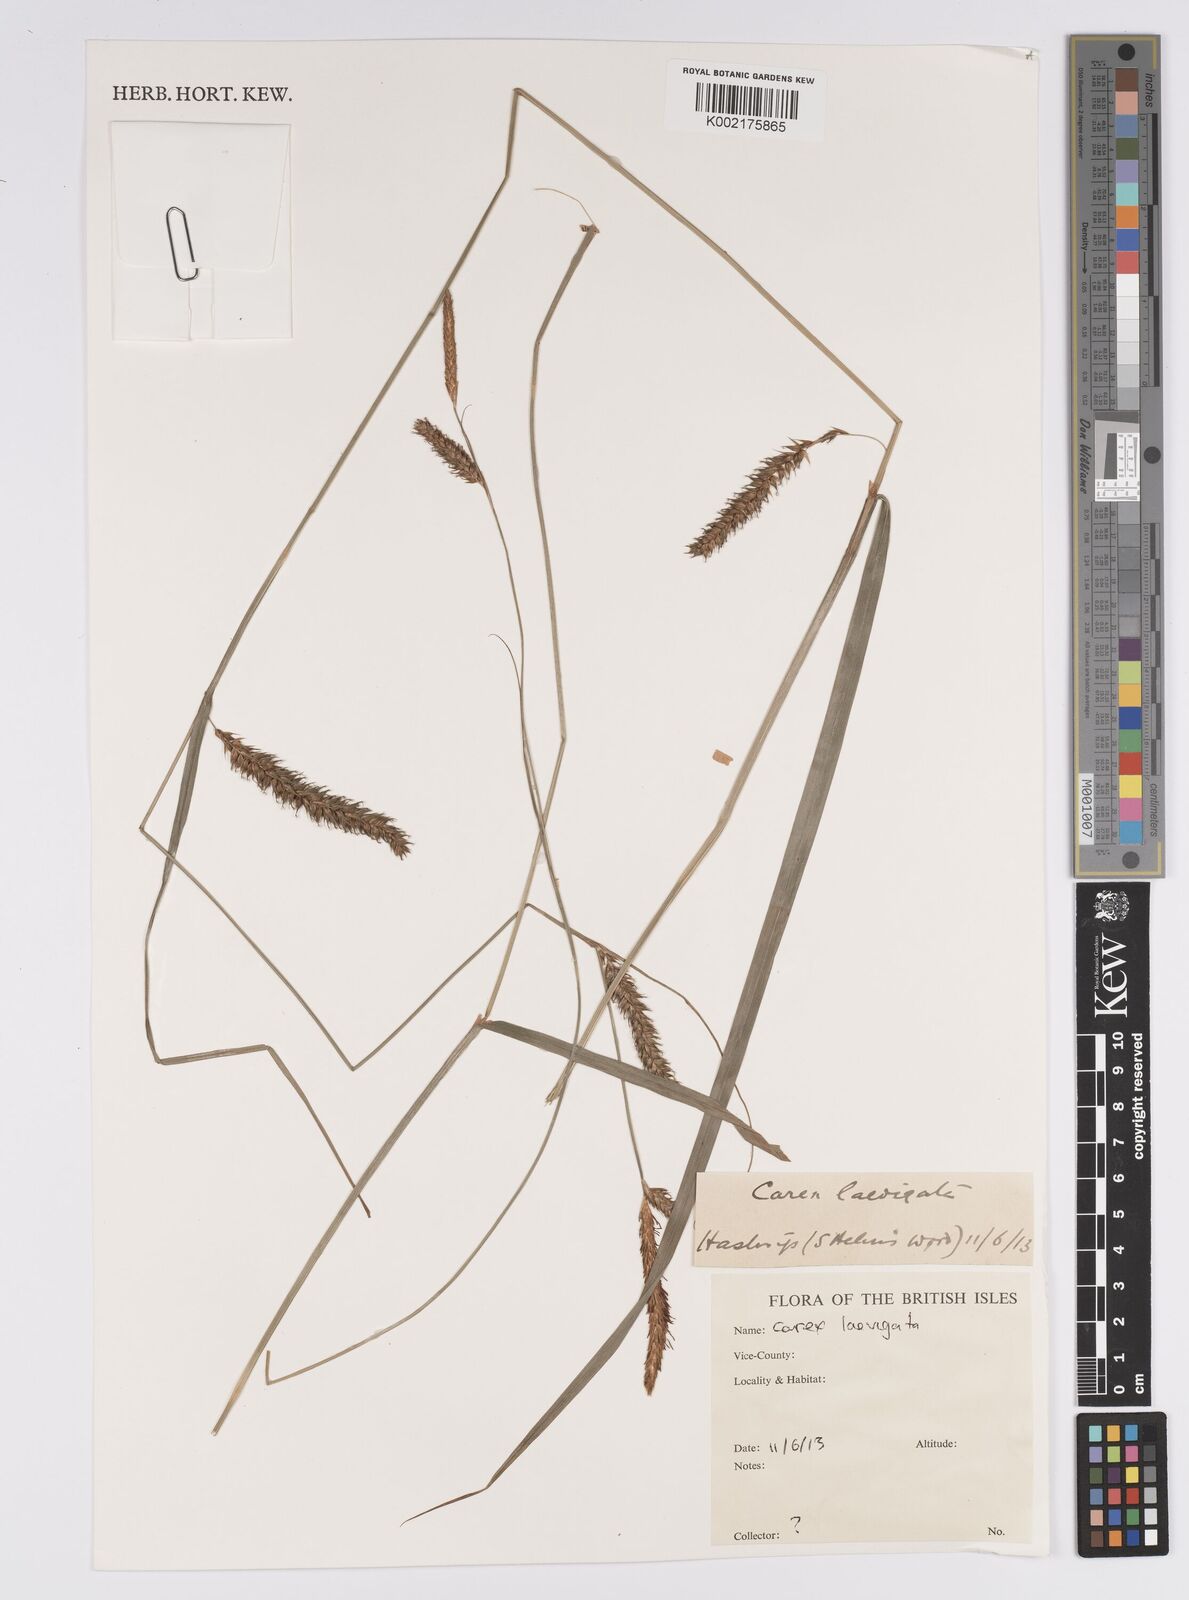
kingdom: Plantae
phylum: Tracheophyta
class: Liliopsida
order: Poales
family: Cyperaceae
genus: Carex
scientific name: Carex laevigata
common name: Smooth-stalked sedge
